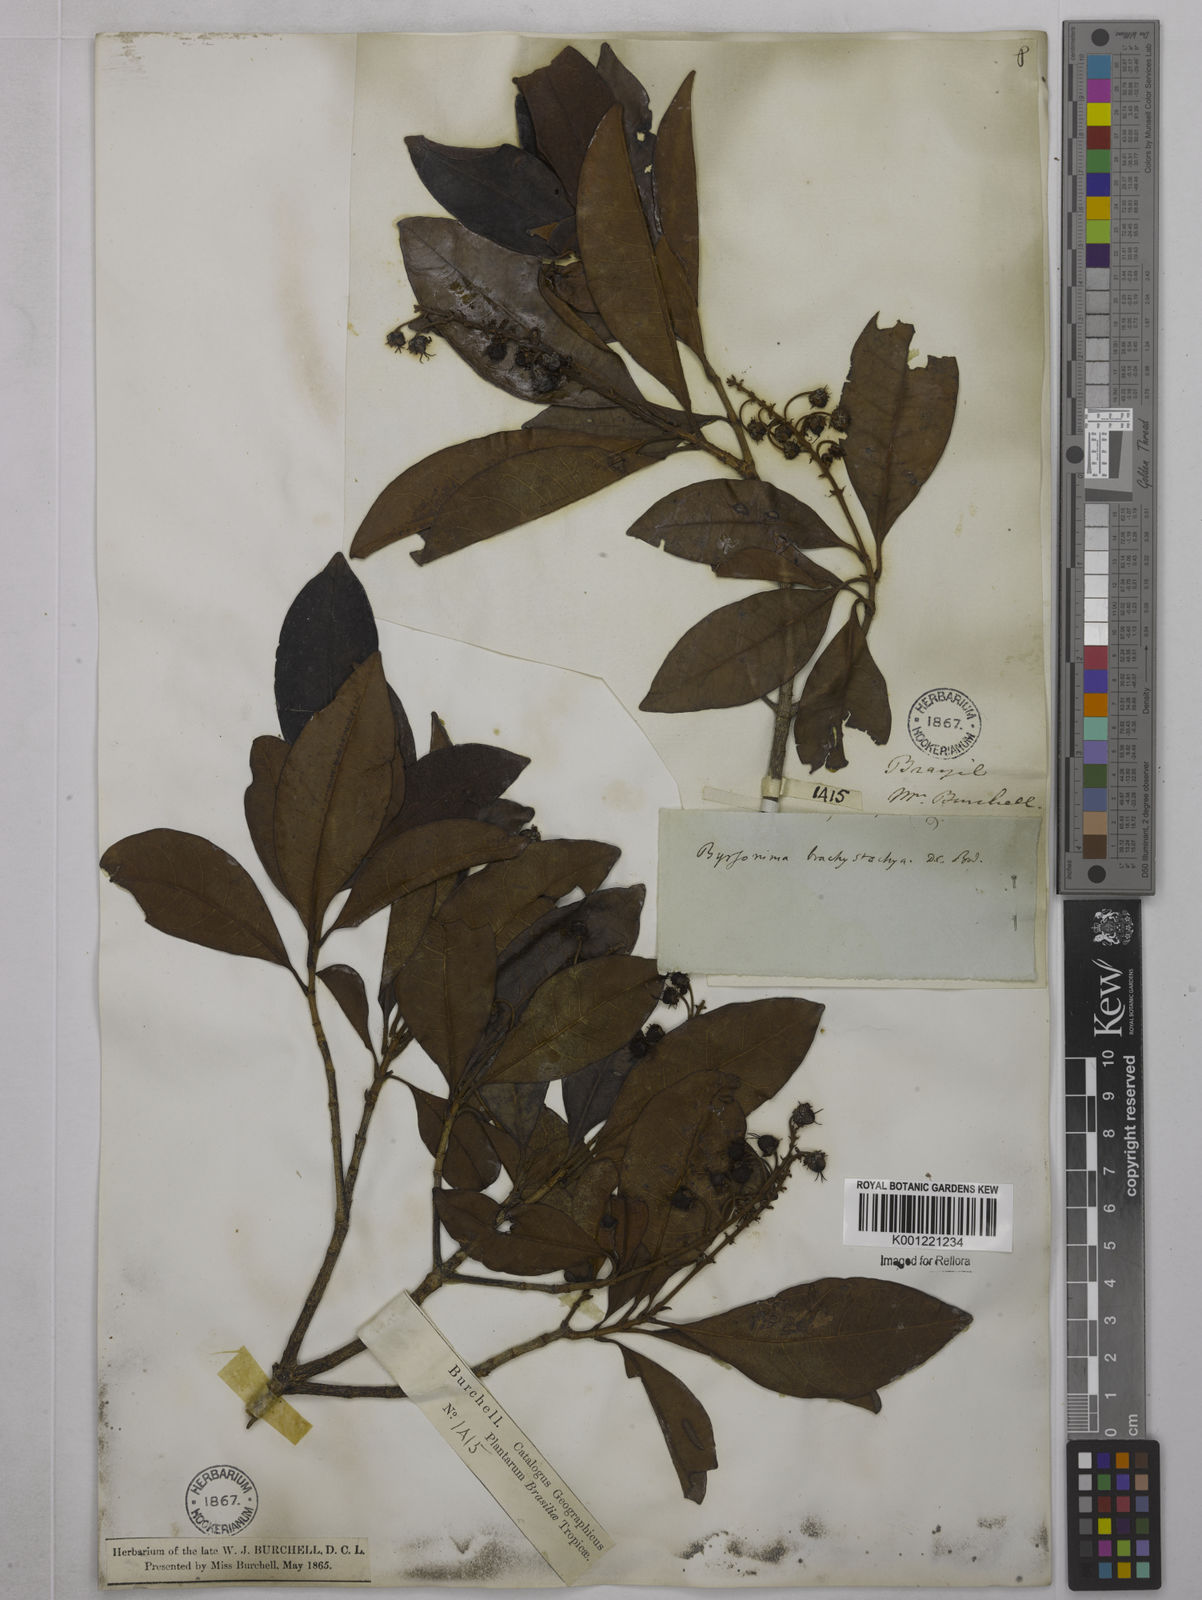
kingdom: Plantae
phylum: Tracheophyta
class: Magnoliopsida
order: Malpighiales
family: Malpighiaceae
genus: Byrsonima
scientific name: Byrsonima brachystachya
